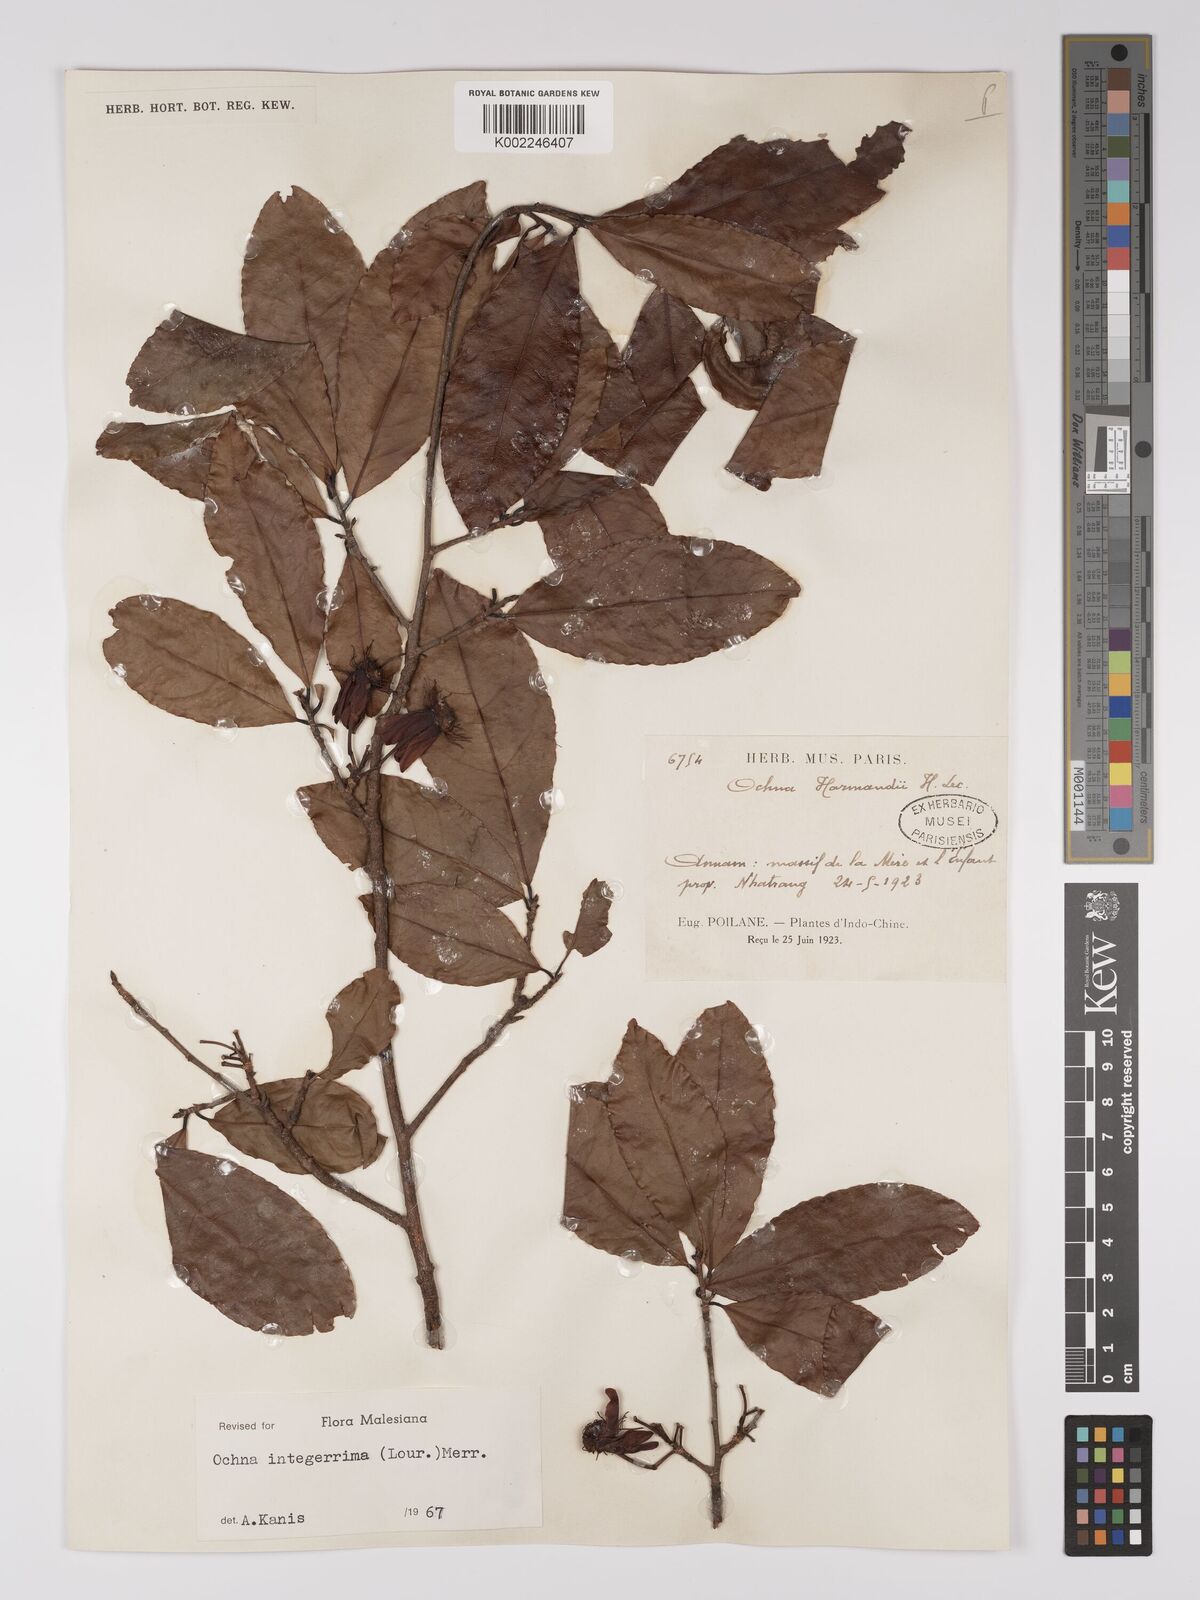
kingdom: Plantae
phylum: Tracheophyta
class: Magnoliopsida
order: Malpighiales
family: Ochnaceae
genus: Ochna
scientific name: Ochna integerrima
